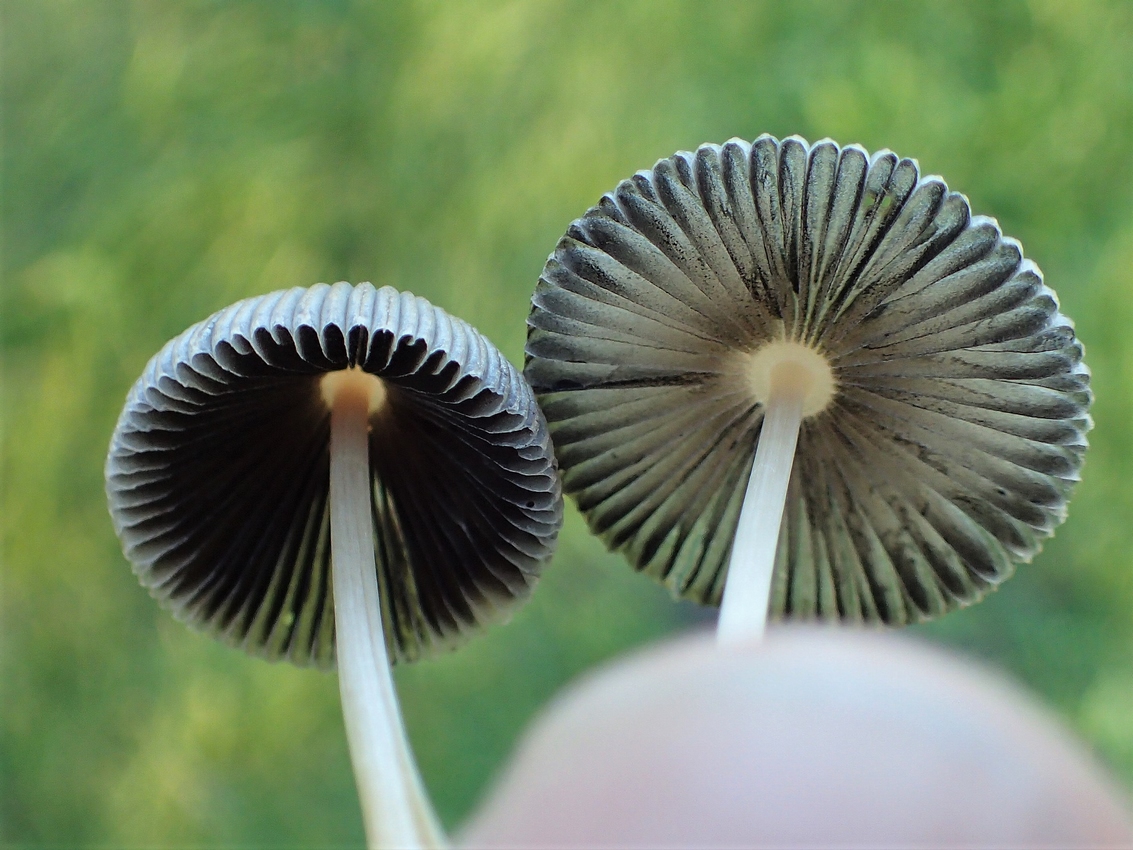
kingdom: Fungi
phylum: Basidiomycota
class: Agaricomycetes
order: Agaricales
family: Psathyrellaceae
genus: Parasola
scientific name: Parasola
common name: hjulhat
